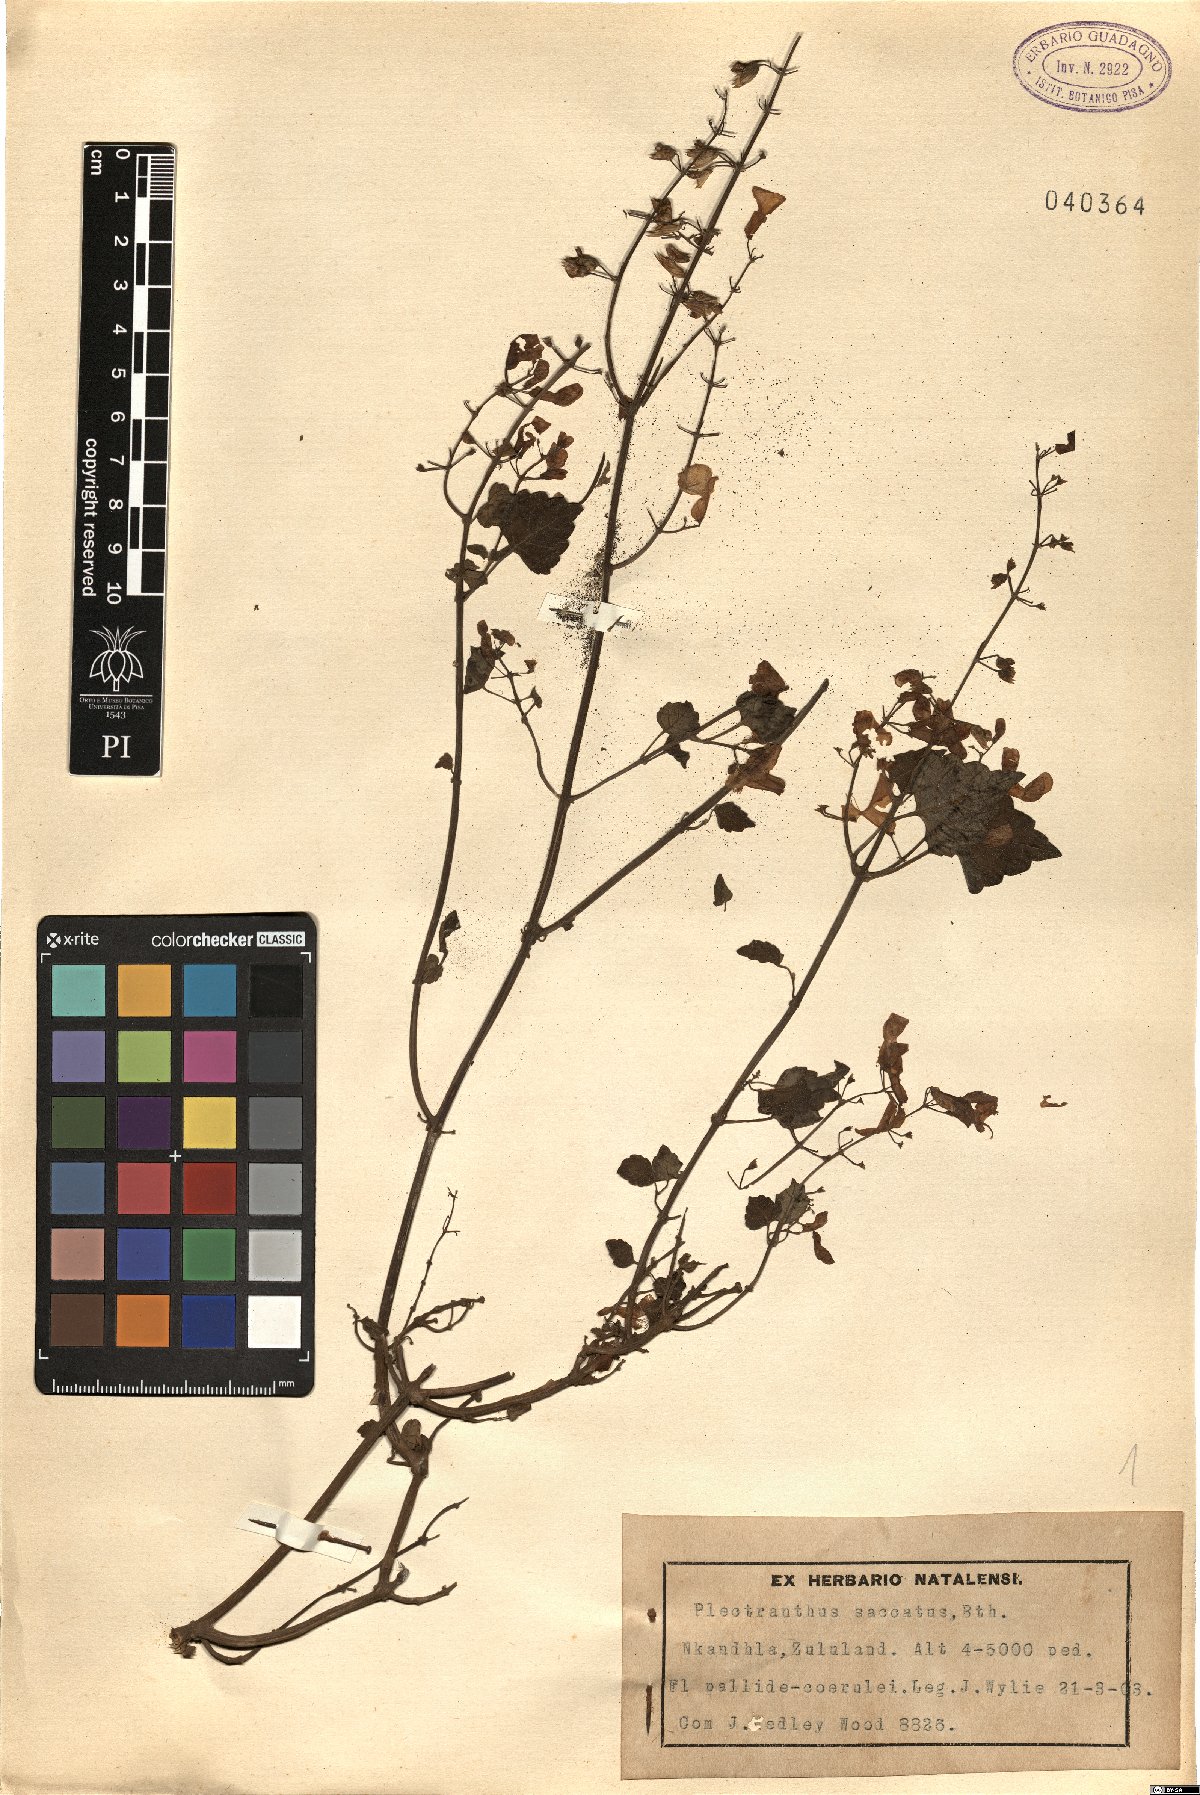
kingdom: Plantae
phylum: Tracheophyta
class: Magnoliopsida
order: Lamiales
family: Lamiaceae
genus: Plectranthus
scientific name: Plectranthus saccatus
